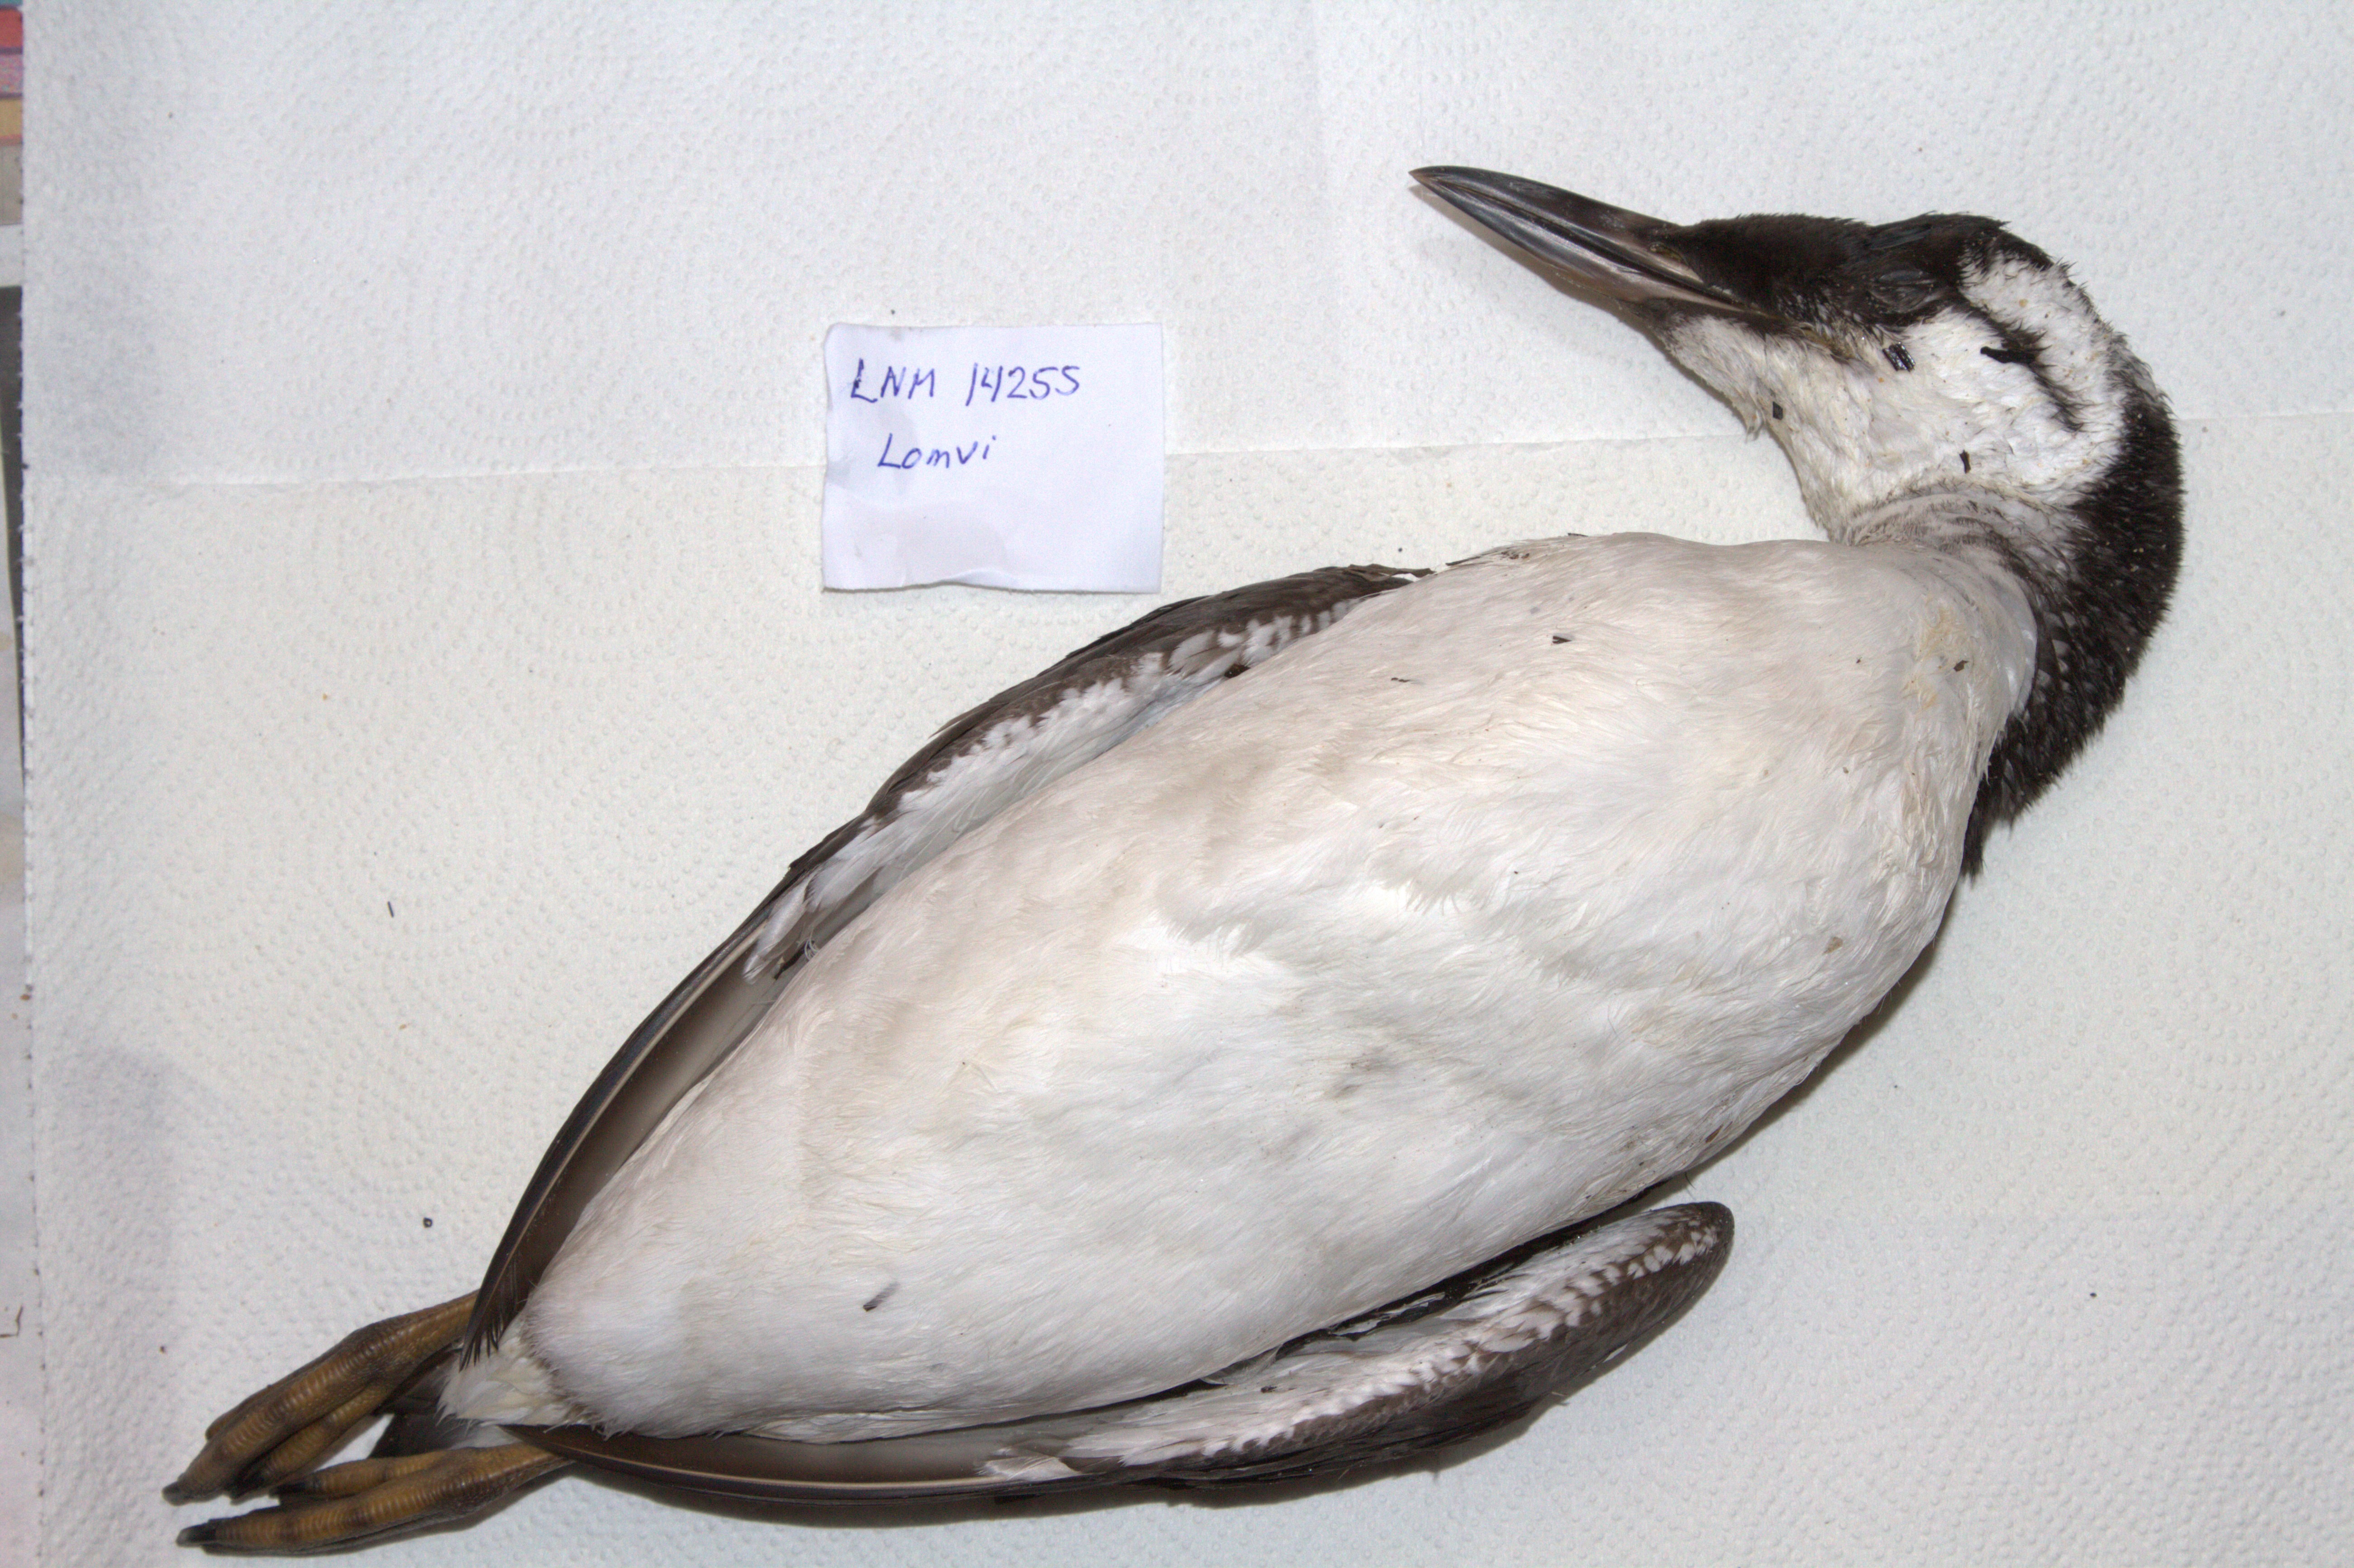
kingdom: Animalia
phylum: Chordata
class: Aves
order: Charadriiformes
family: Alcidae
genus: Uria
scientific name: Uria aalge
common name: Common murre
